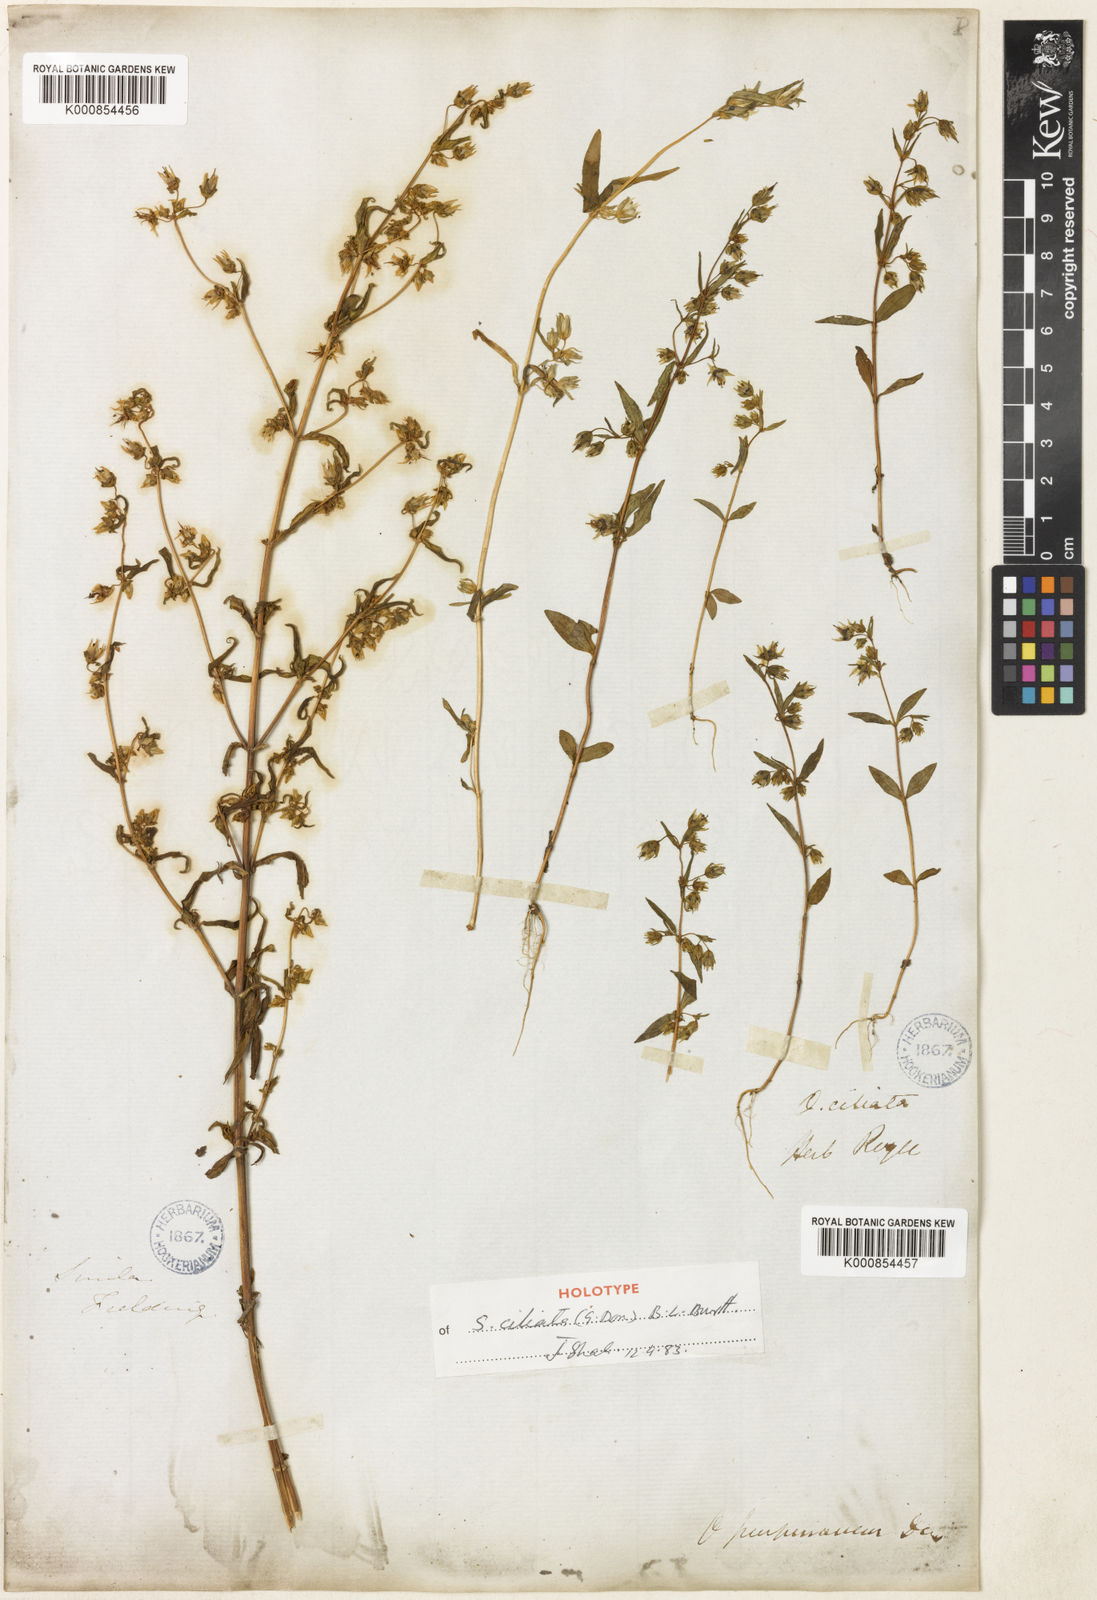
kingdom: Plantae
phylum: Tracheophyta
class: Magnoliopsida
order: Gentianales
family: Gentianaceae
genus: Swertia
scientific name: Swertia
